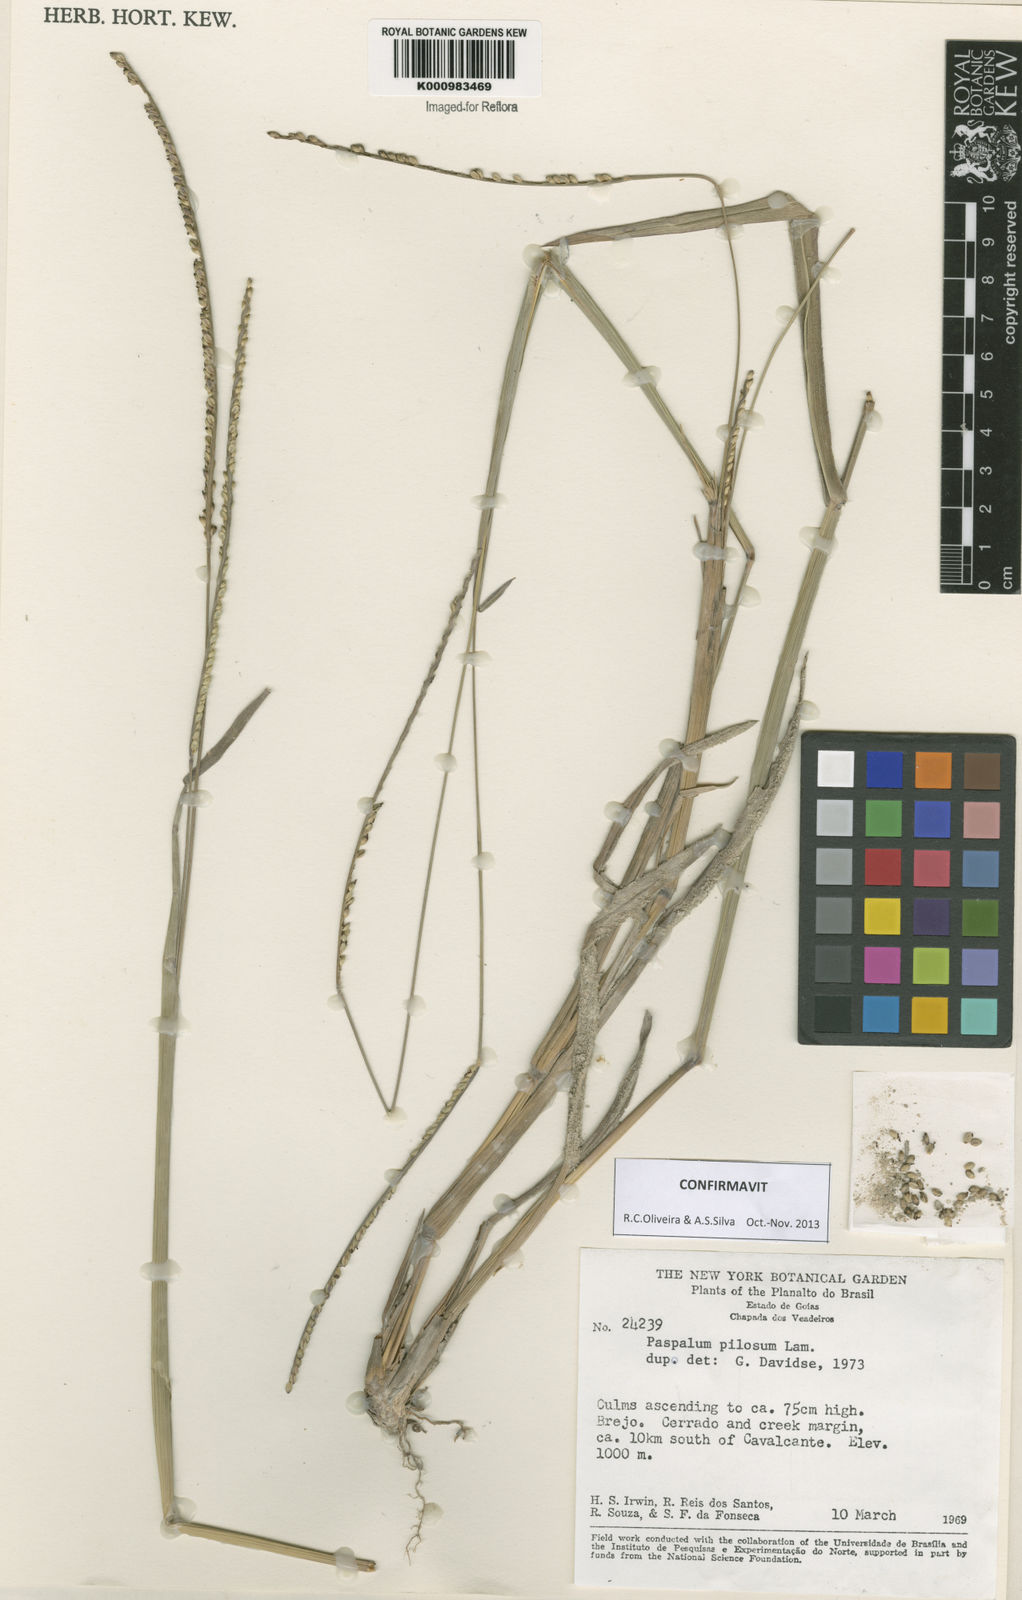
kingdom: Plantae
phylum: Tracheophyta
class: Liliopsida
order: Poales
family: Poaceae
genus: Paspalum
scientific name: Paspalum pilosum
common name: Crowngrass
